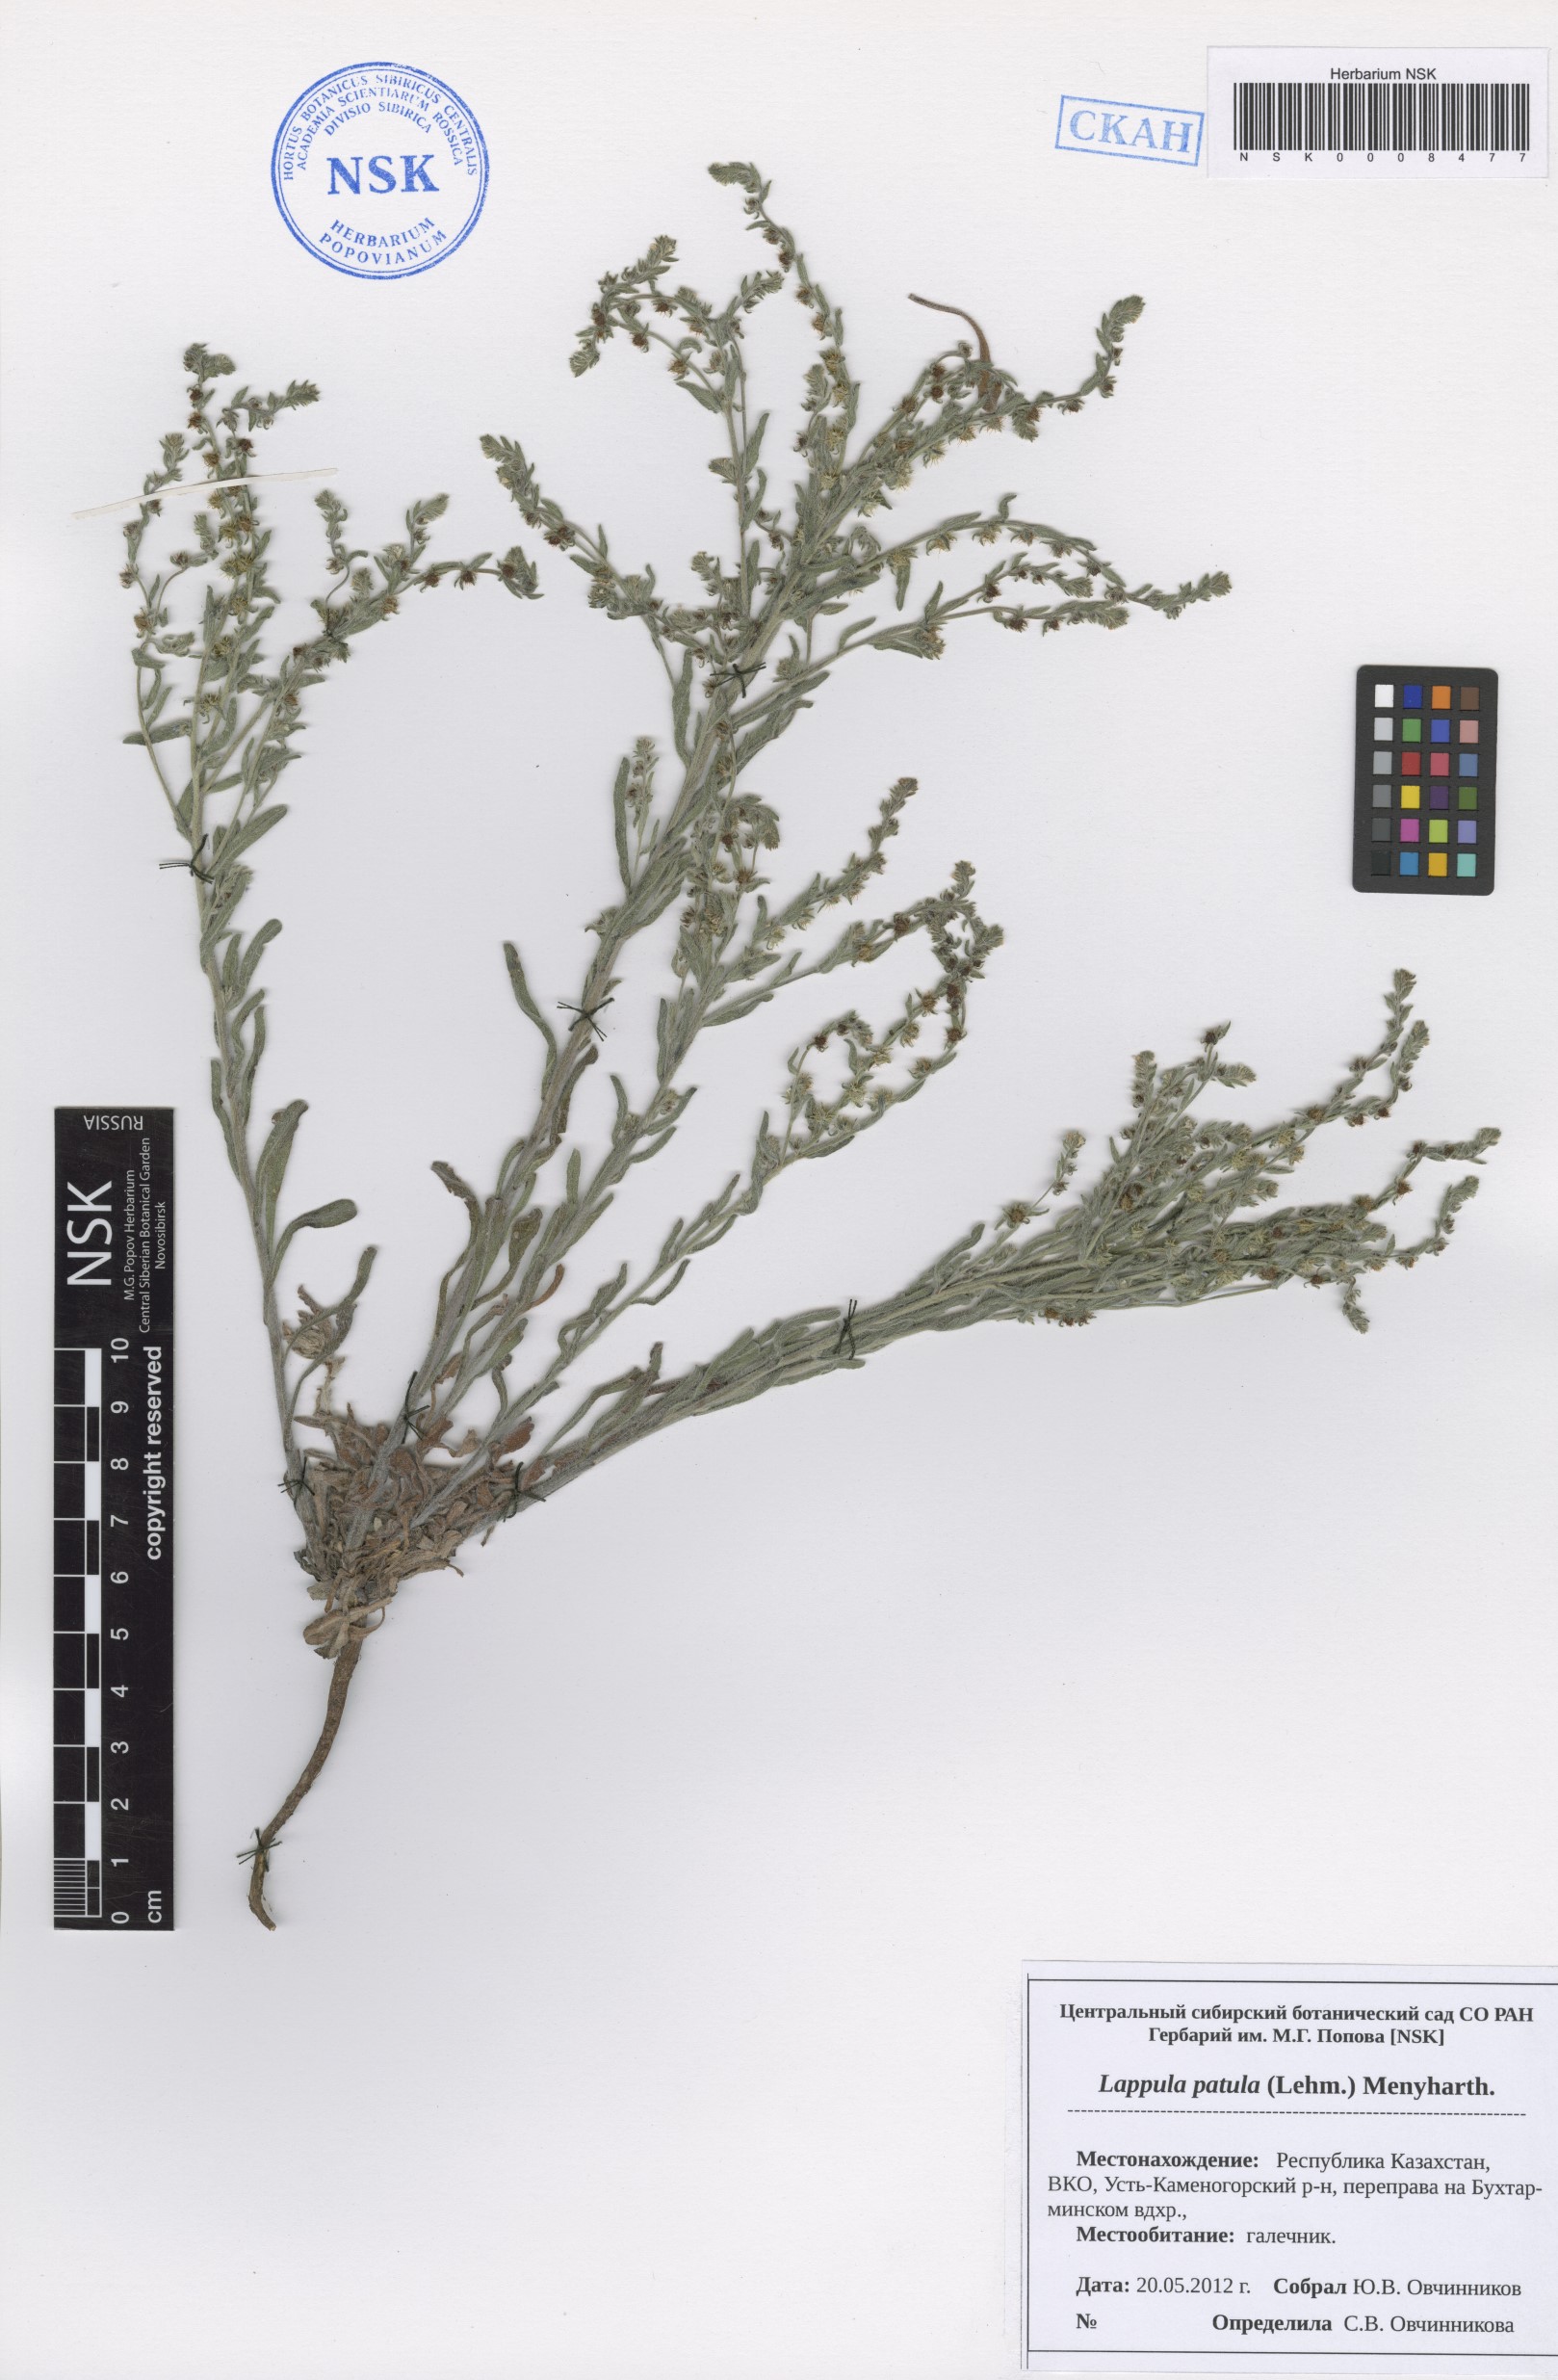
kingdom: Plantae
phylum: Tracheophyta
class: Magnoliopsida
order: Boraginales
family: Boraginaceae
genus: Lappula
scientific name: Lappula patula
